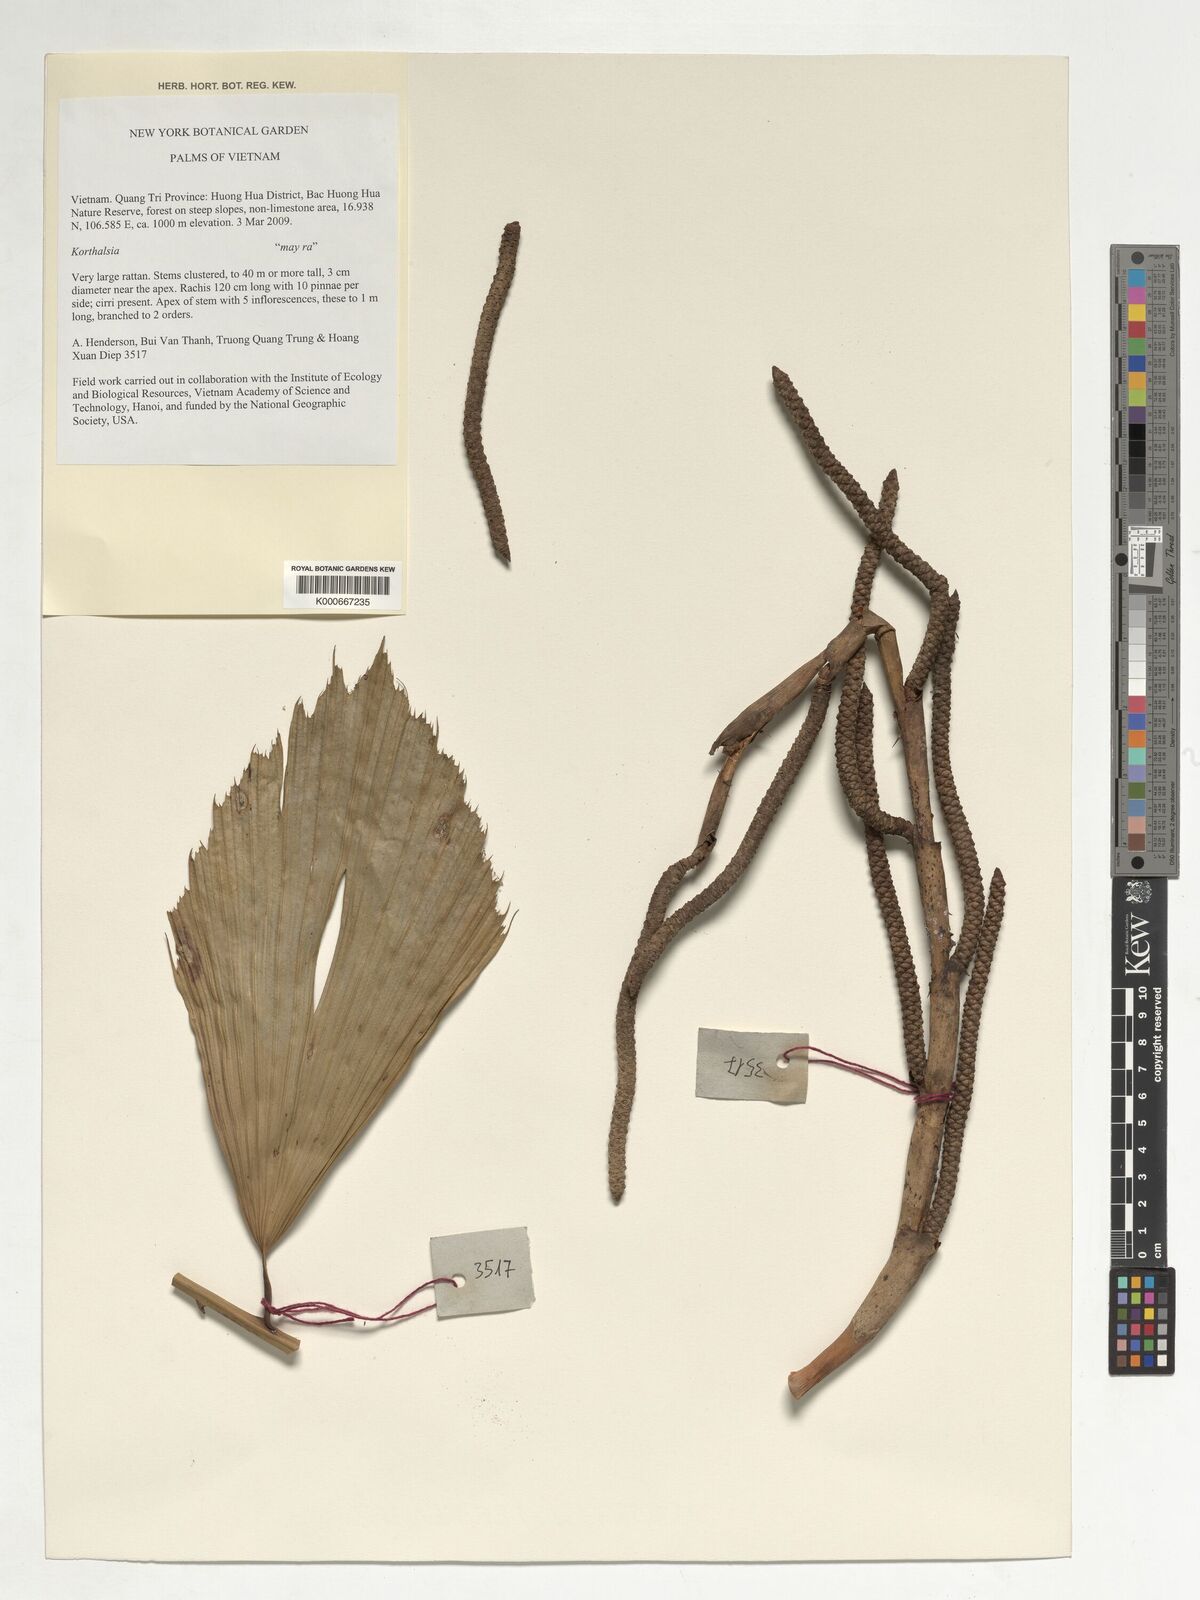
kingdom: Plantae
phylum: Tracheophyta
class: Liliopsida
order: Arecales
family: Arecaceae
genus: Korthalsia
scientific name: Korthalsia
